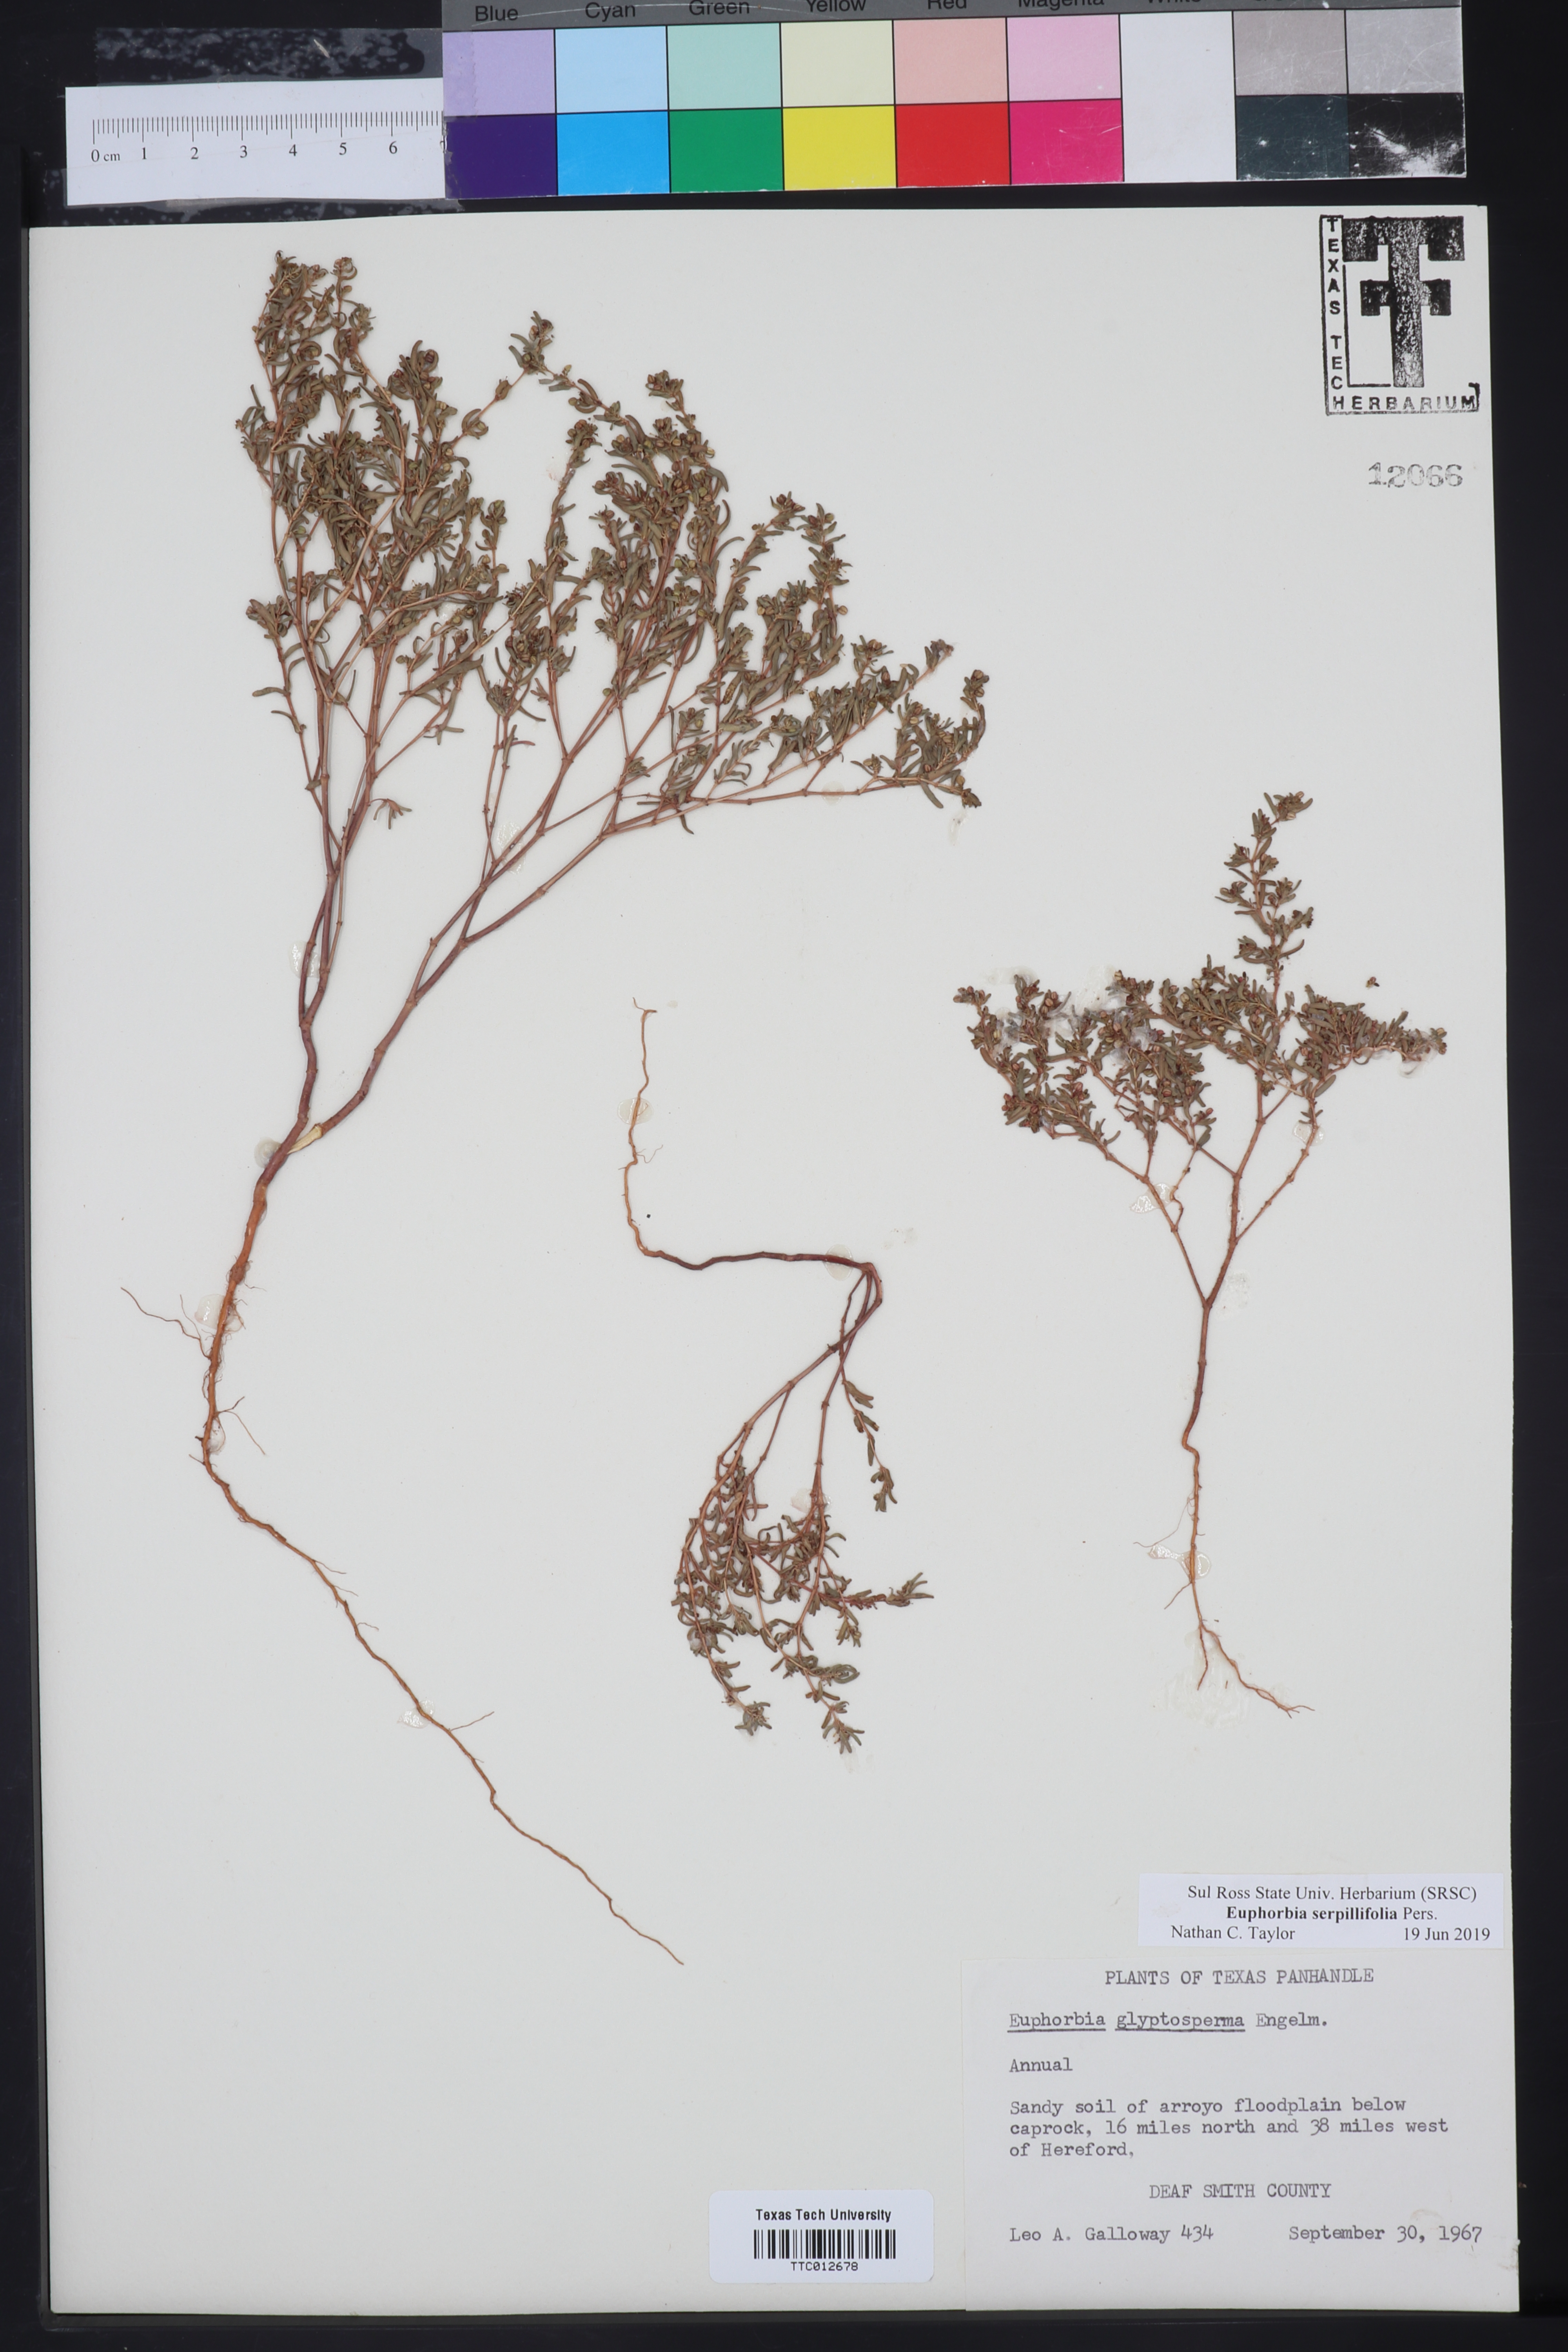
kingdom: Plantae
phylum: Tracheophyta
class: Magnoliopsida
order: Malpighiales
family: Euphorbiaceae
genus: Euphorbia
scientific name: Euphorbia serpillifolia
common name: Thyme-leaf spurge
